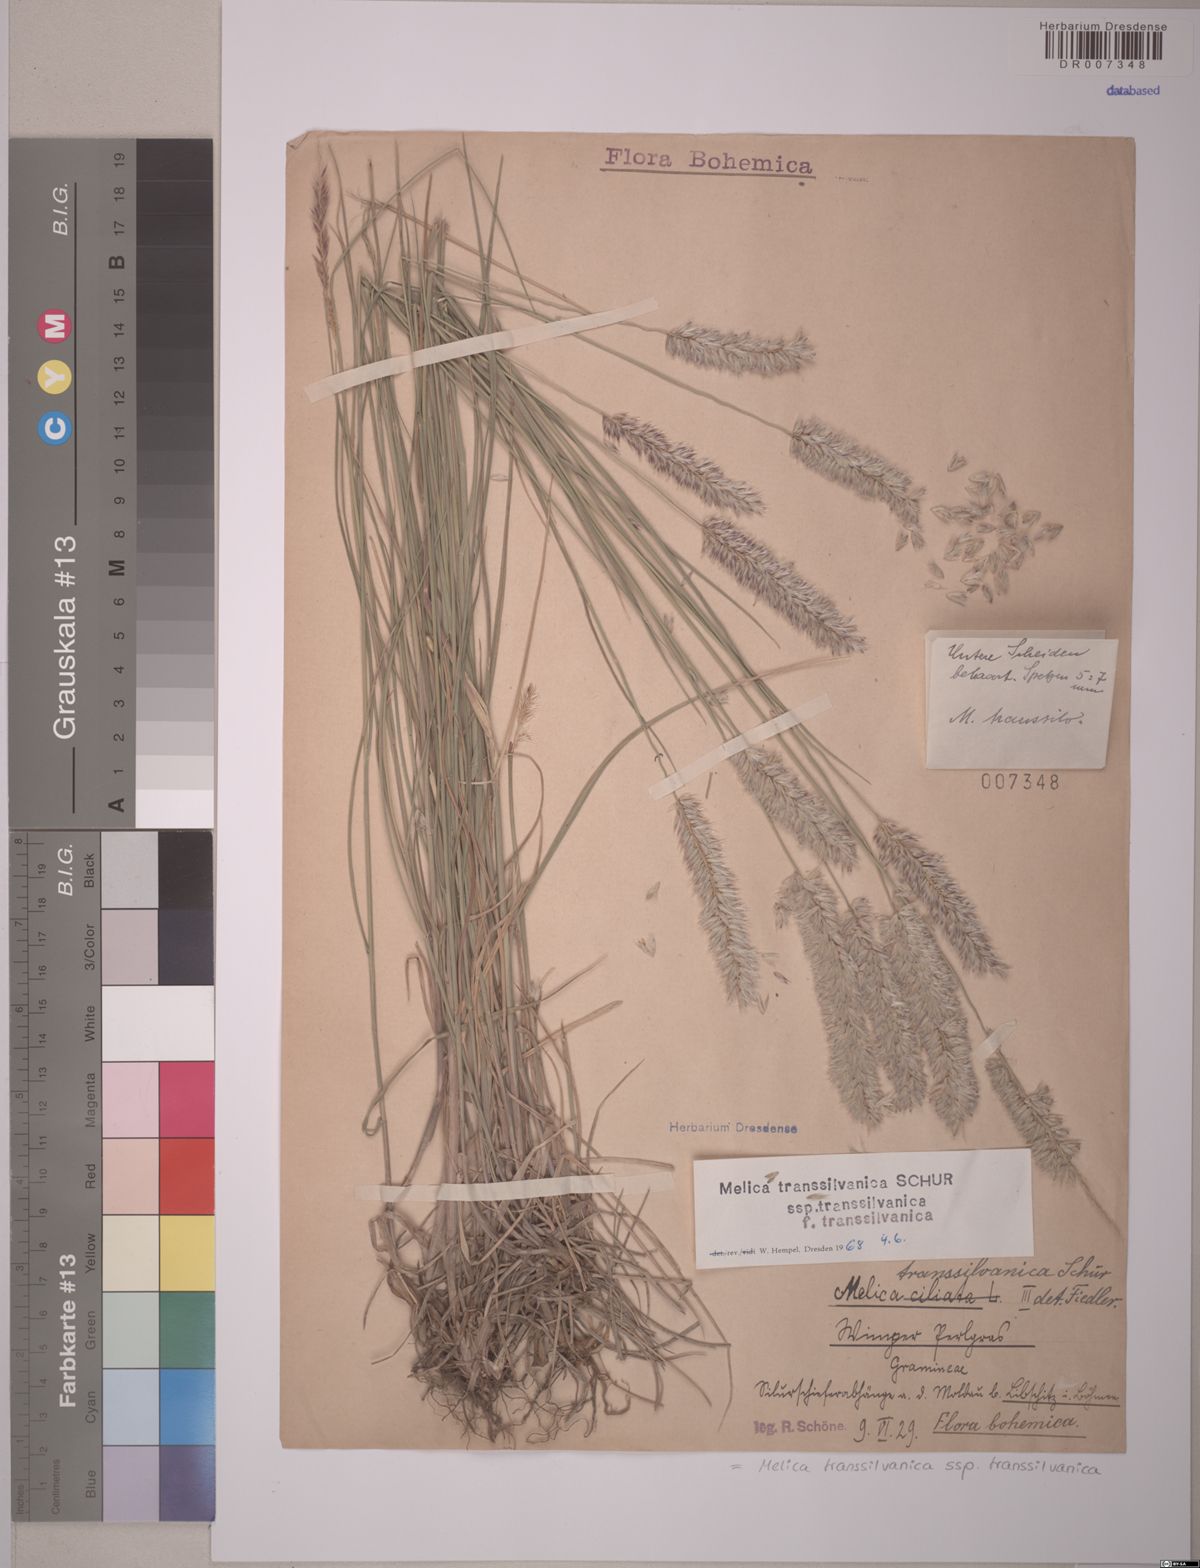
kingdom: Plantae
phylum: Tracheophyta
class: Liliopsida
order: Poales
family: Poaceae
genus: Melica
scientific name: Melica transsilvanica
